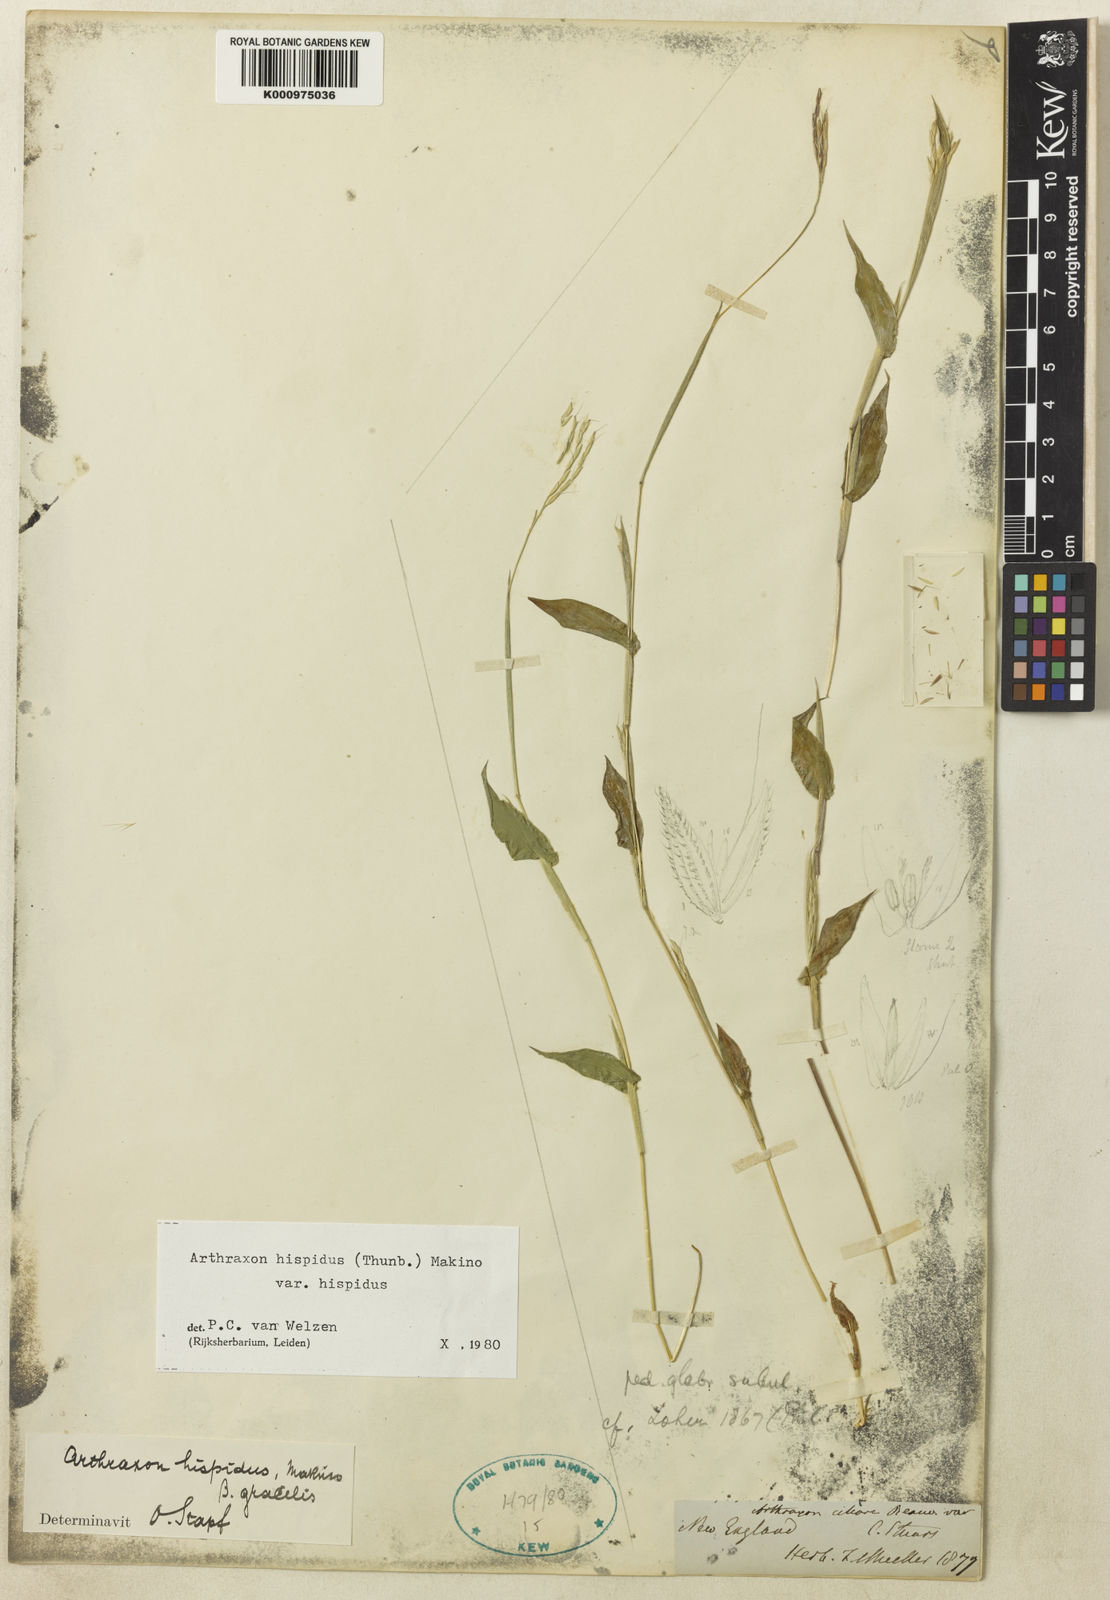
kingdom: Plantae
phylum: Tracheophyta
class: Liliopsida
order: Poales
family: Poaceae
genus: Arthraxon
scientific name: Arthraxon hispidus
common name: Small carpgrass
